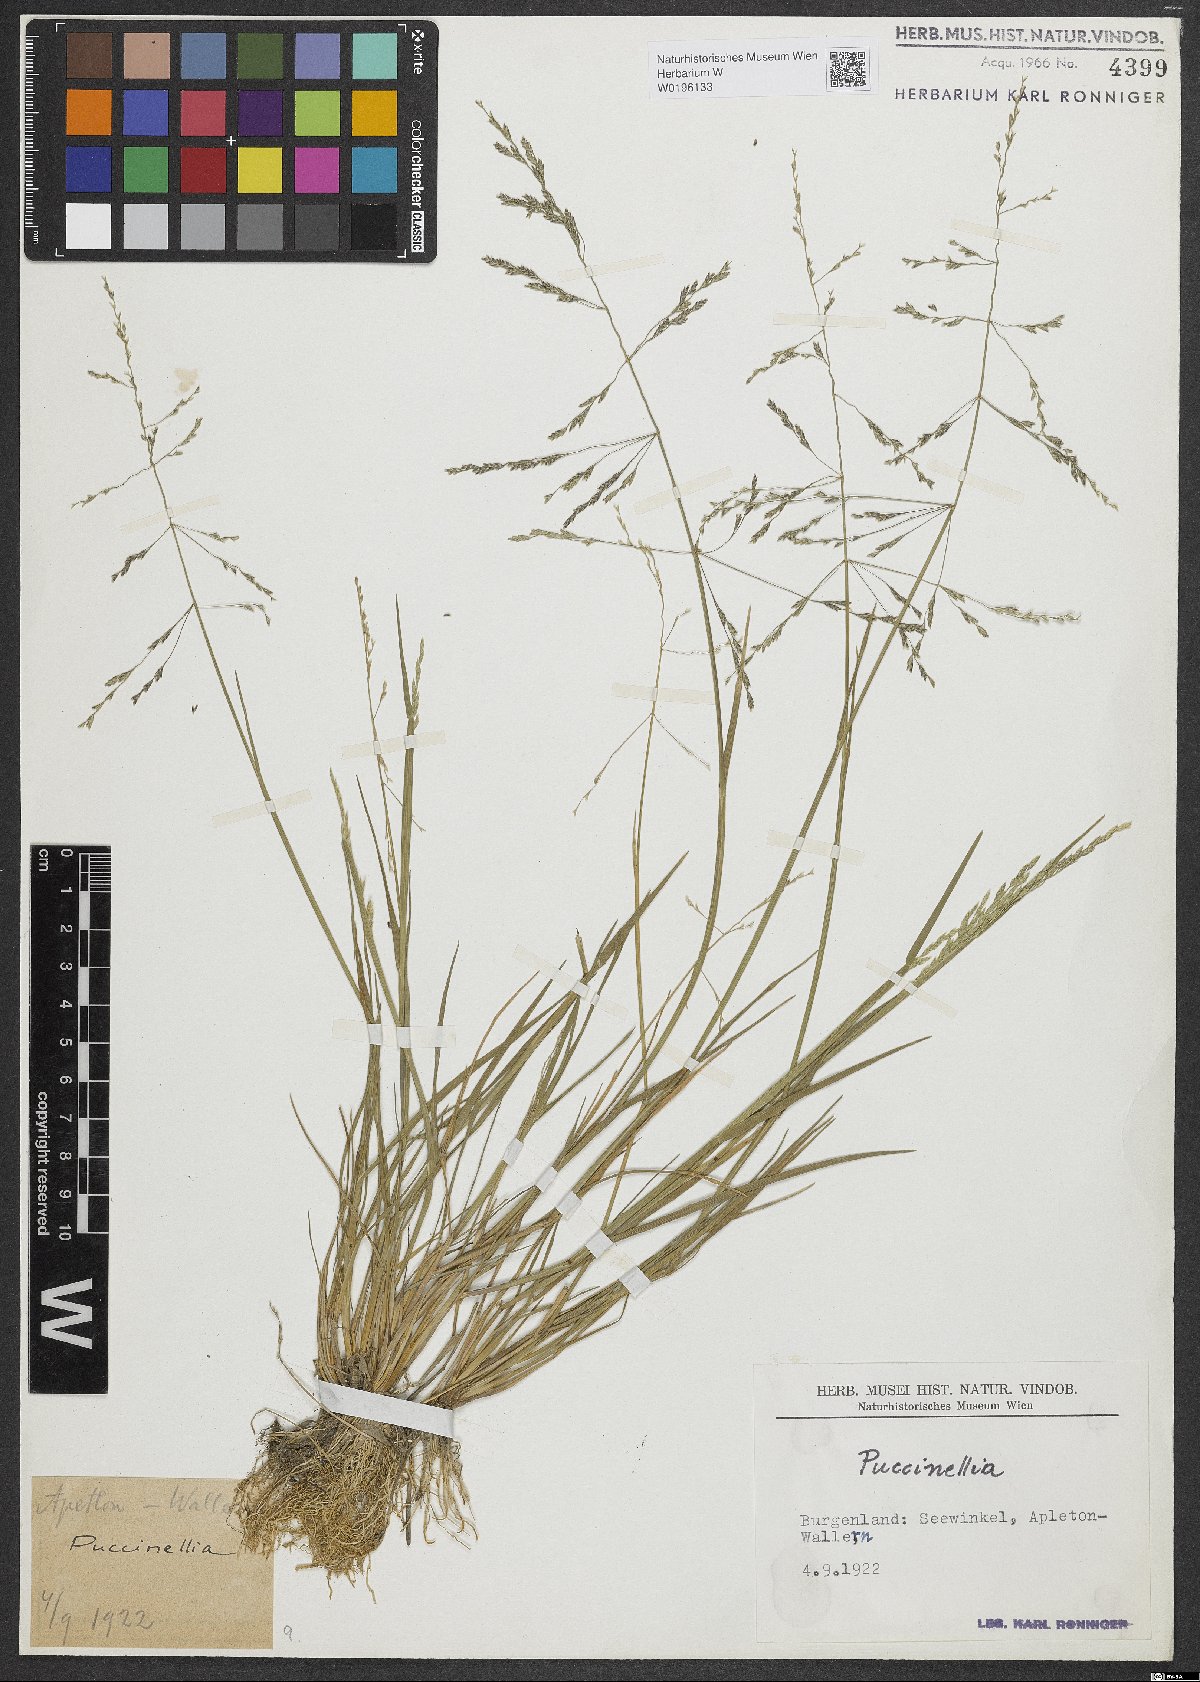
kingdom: Plantae
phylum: Tracheophyta
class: Liliopsida
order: Poales
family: Poaceae
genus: Puccinellia
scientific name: Puccinellia
